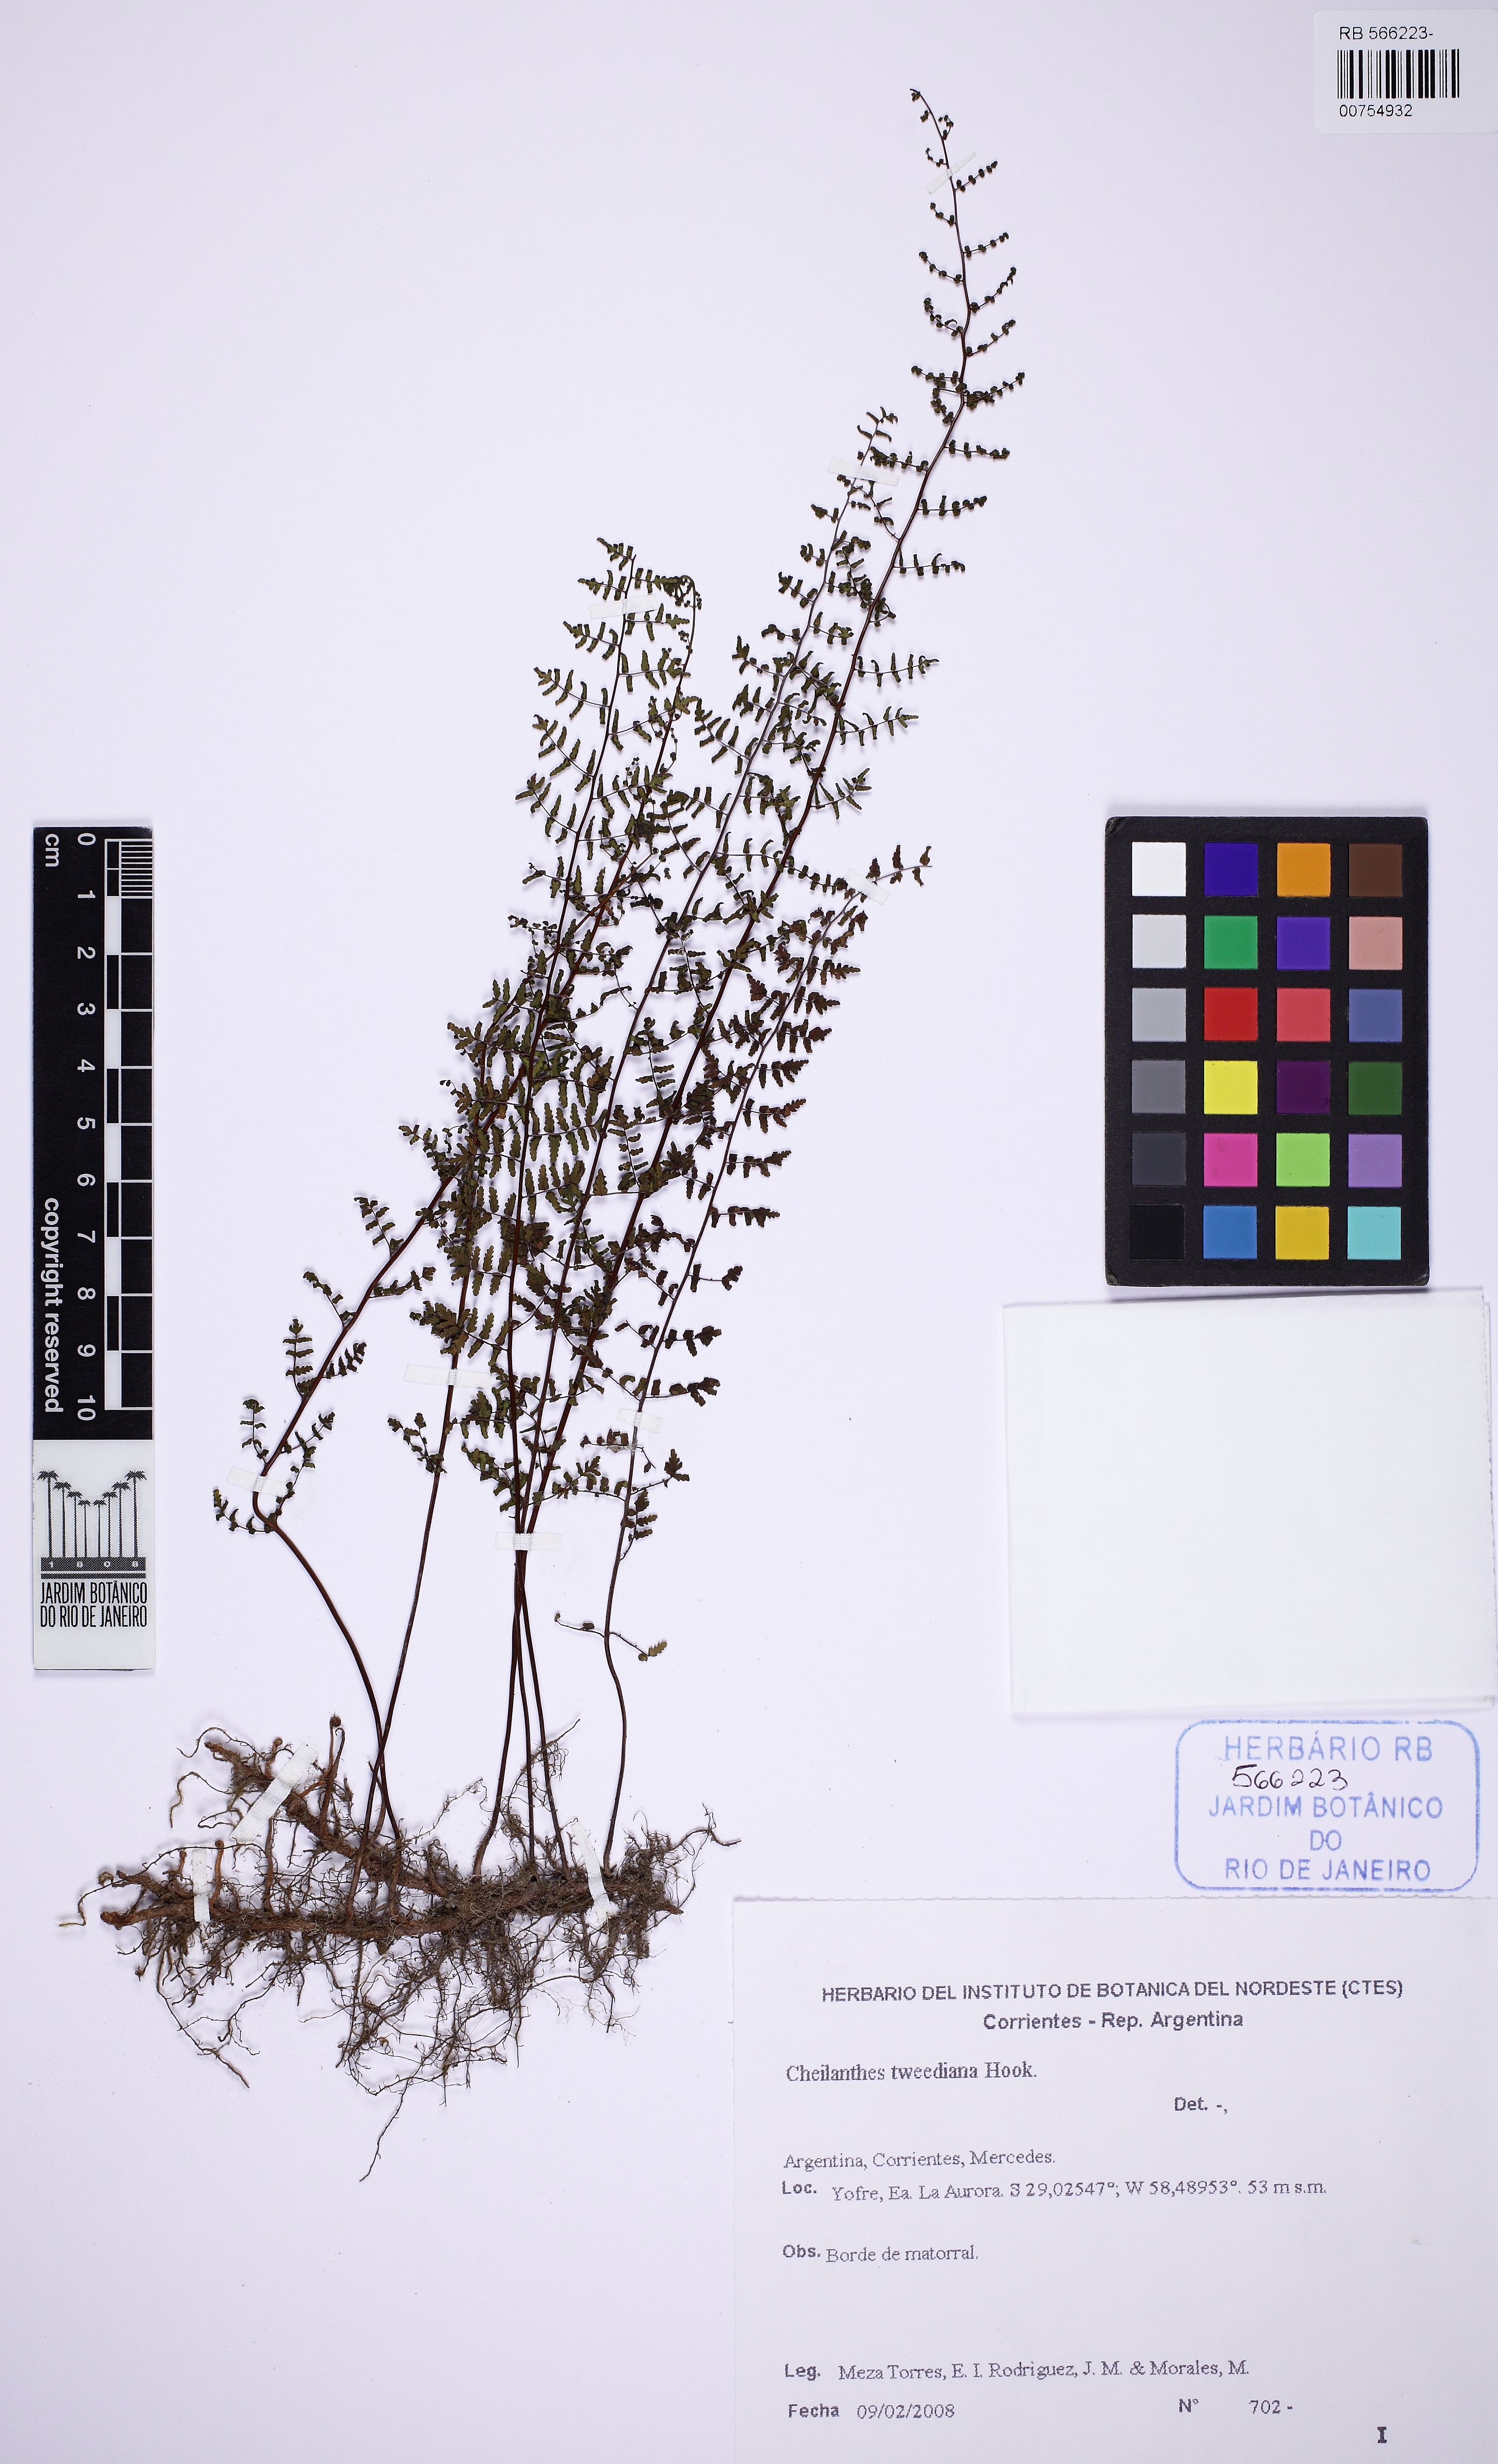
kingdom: Plantae
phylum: Tracheophyta
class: Polypodiopsida
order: Polypodiales
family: Pteridaceae
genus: Adiantopsis
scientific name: Adiantopsis tweediana
